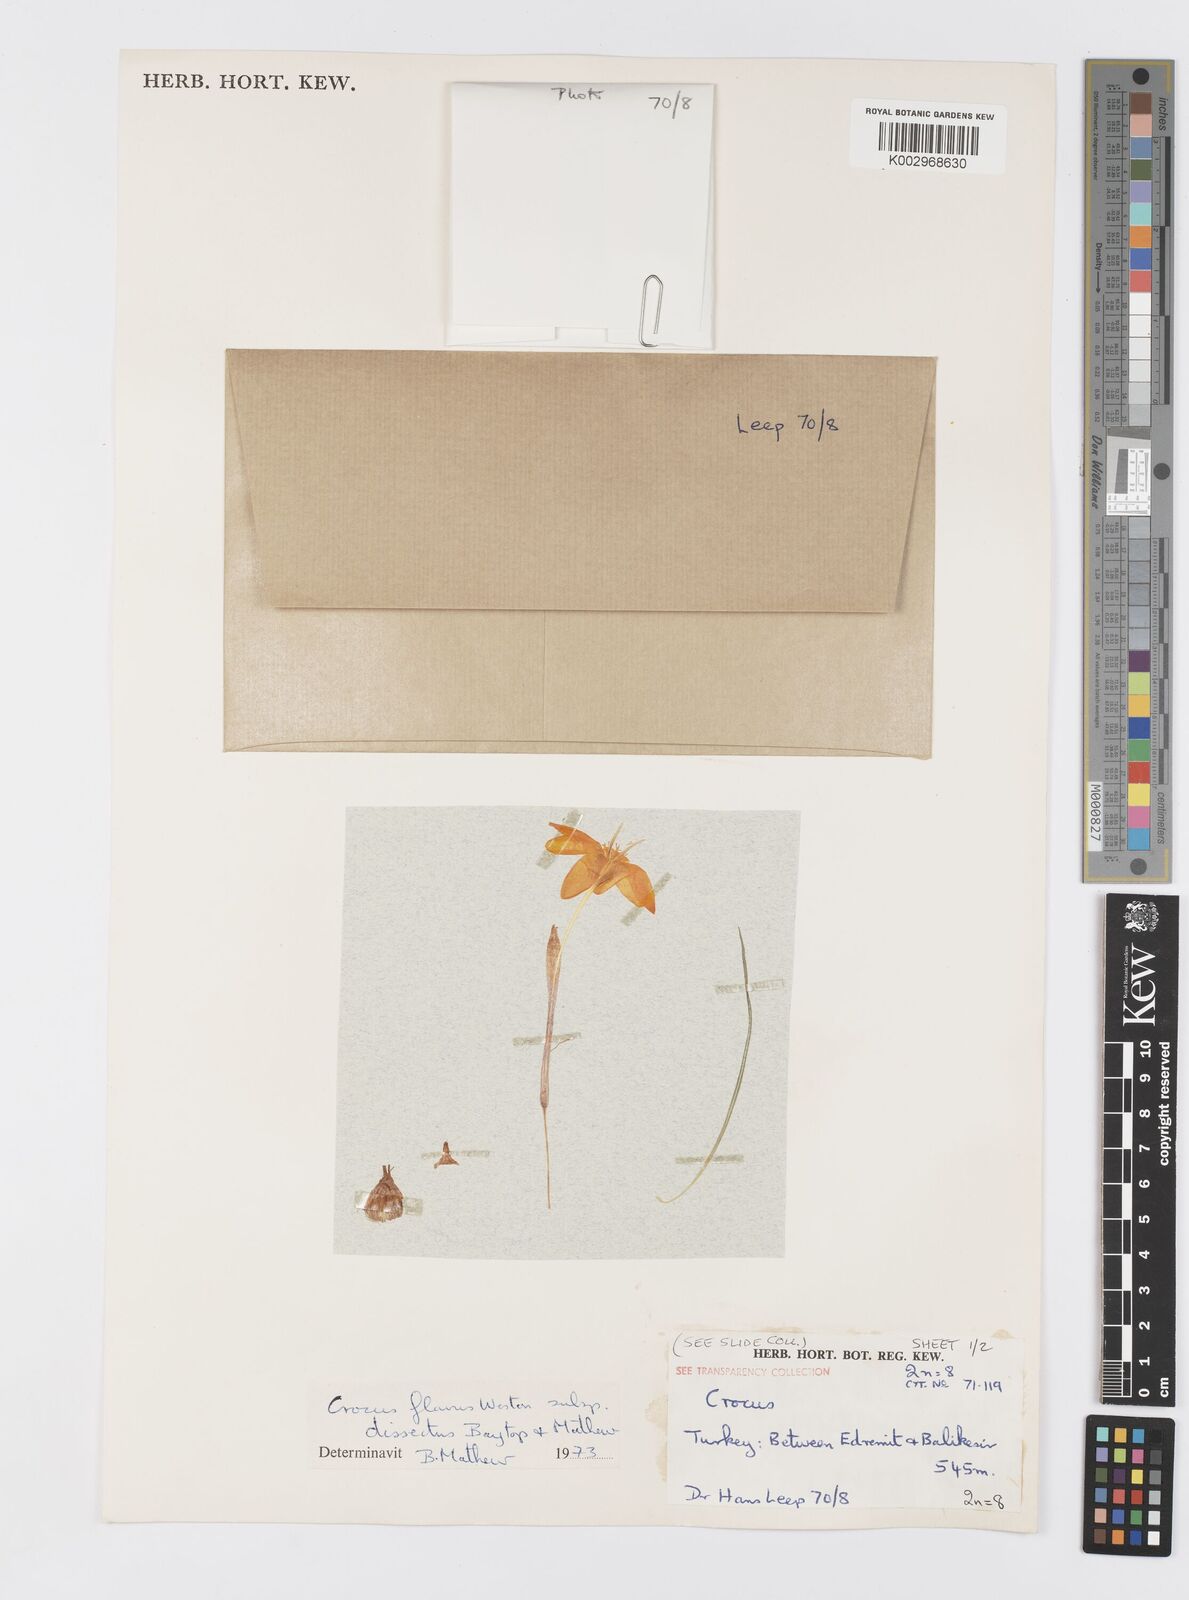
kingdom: Plantae
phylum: Tracheophyta
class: Liliopsida
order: Asparagales
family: Iridaceae
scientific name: Iridaceae
